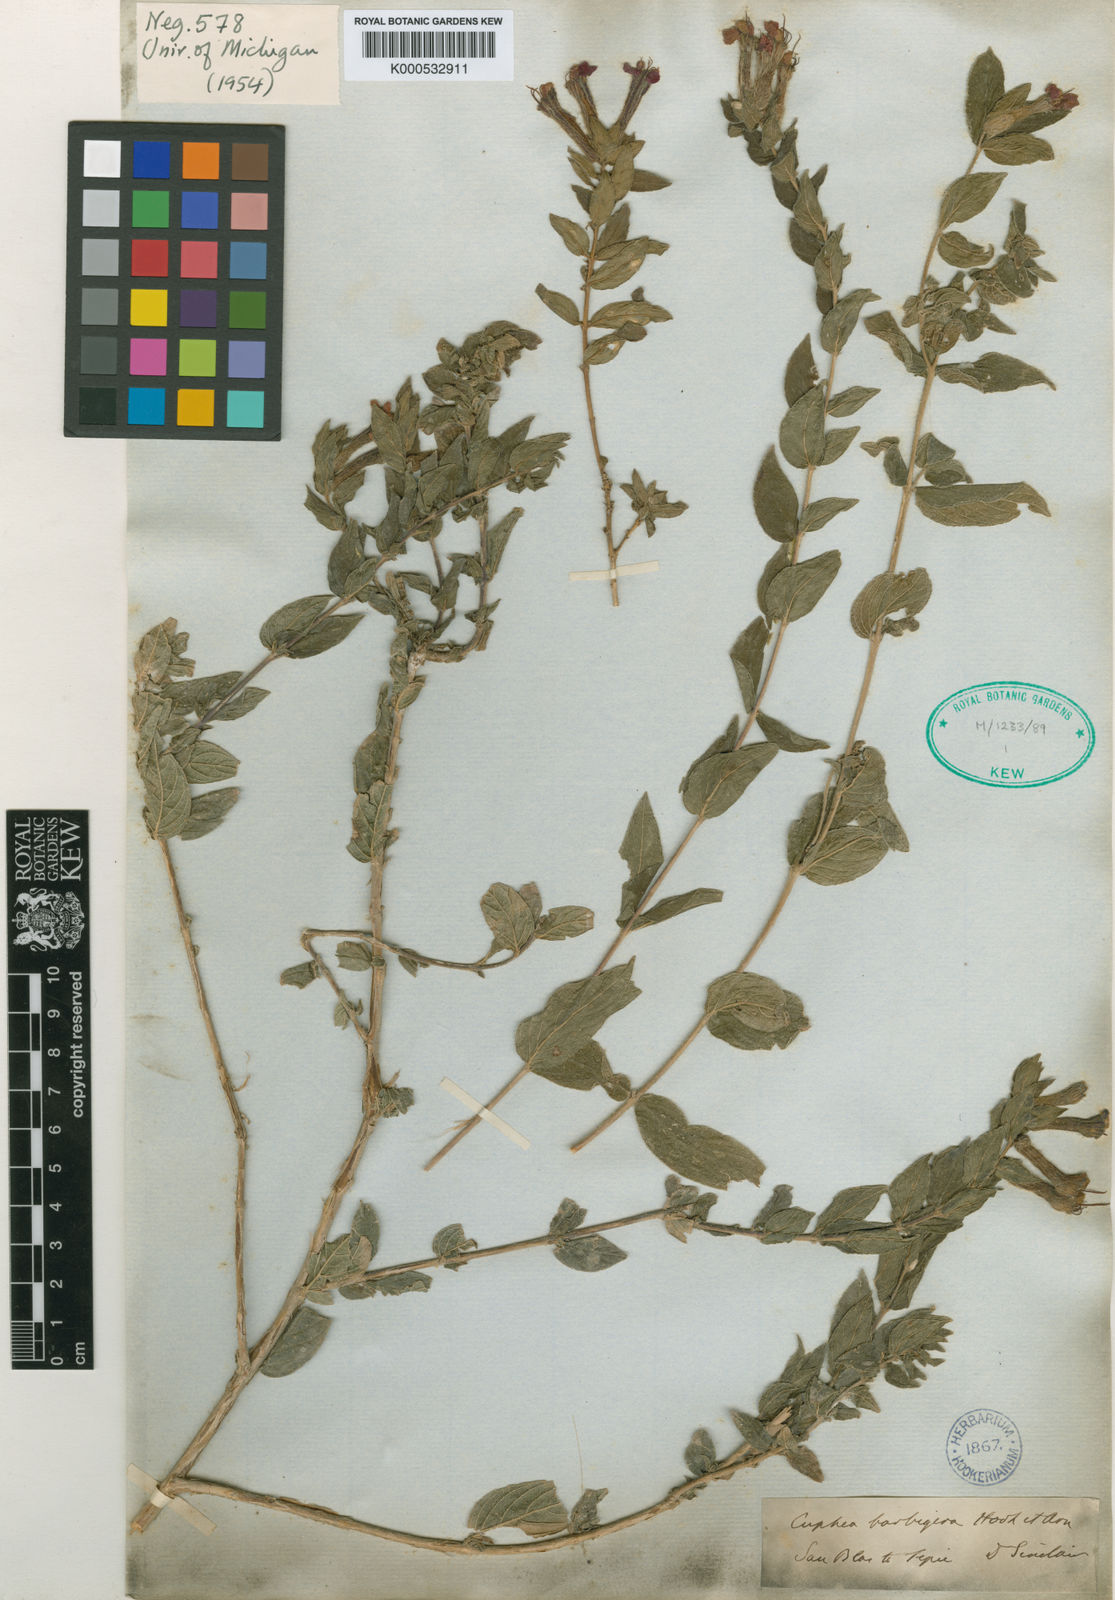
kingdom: Plantae
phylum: Tracheophyta
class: Magnoliopsida
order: Myrtales
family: Lythraceae
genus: Cuphea
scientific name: Cuphea llavea
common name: Tiny-mice
